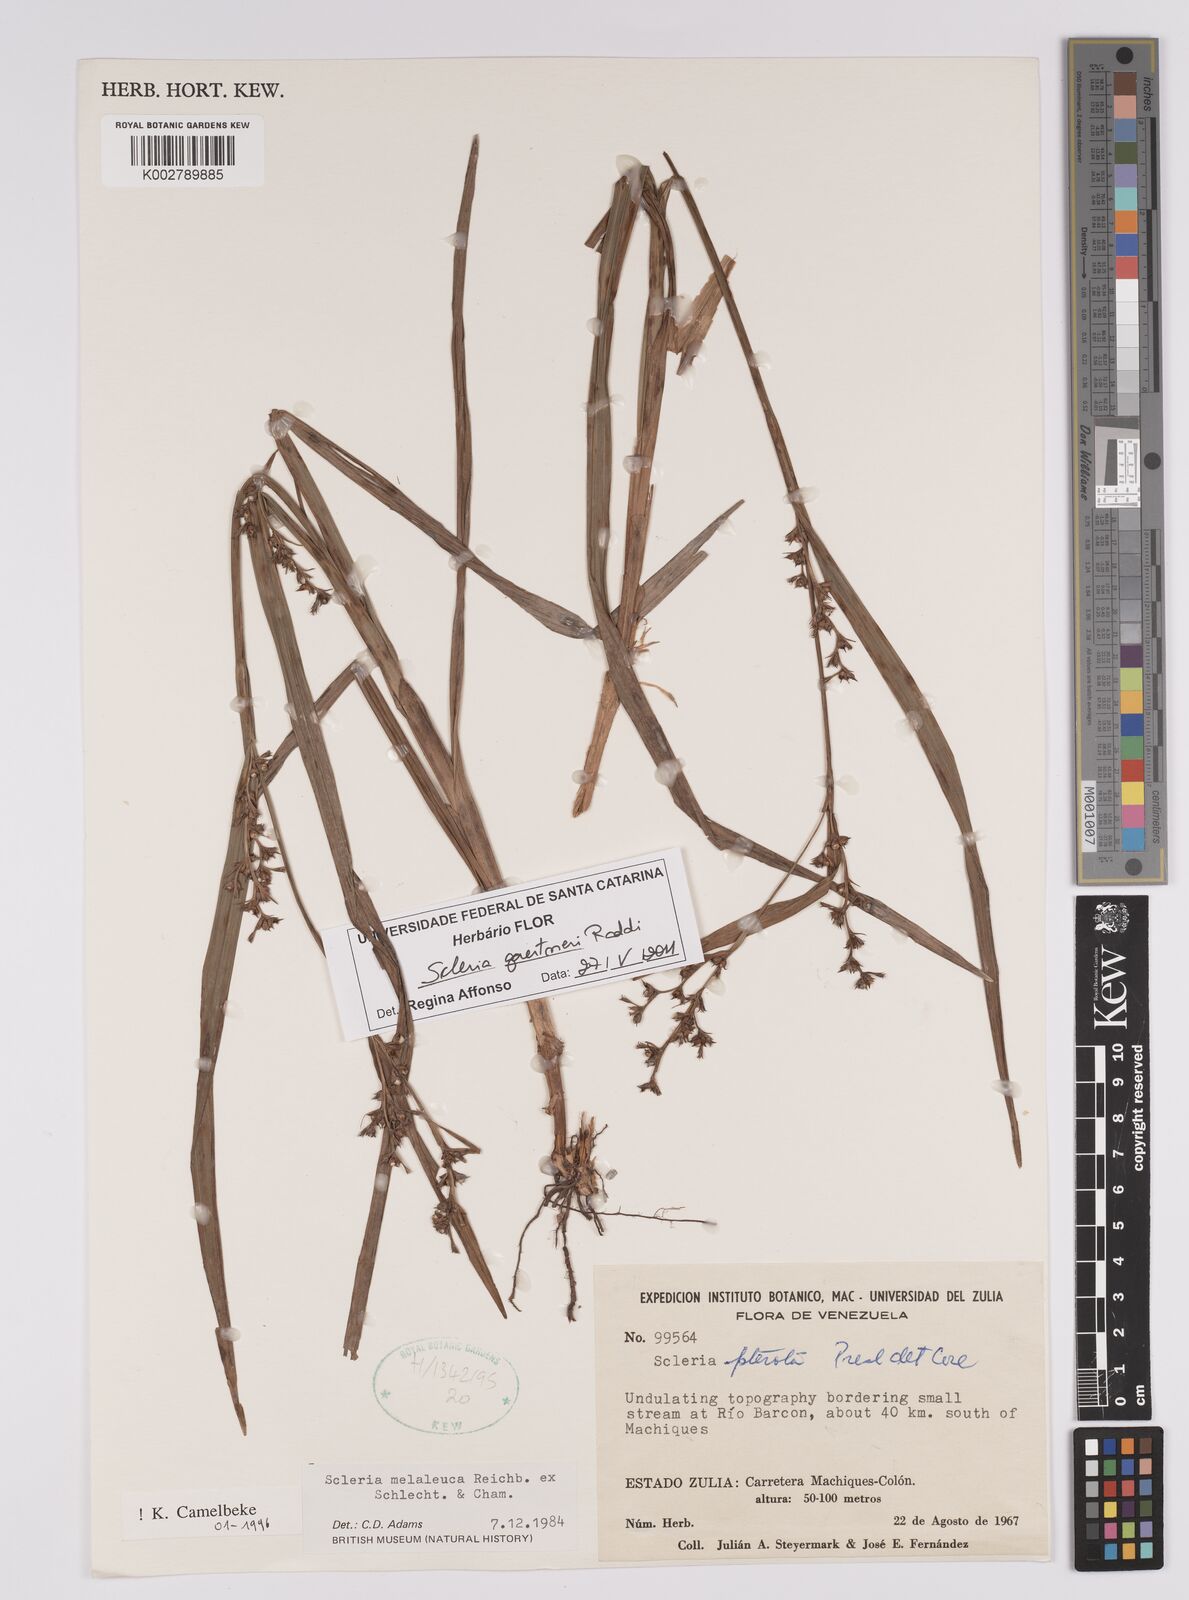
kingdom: Plantae
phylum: Tracheophyta
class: Liliopsida
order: Poales
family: Cyperaceae
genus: Scleria
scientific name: Scleria gaertneri
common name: Cortadera blanca
